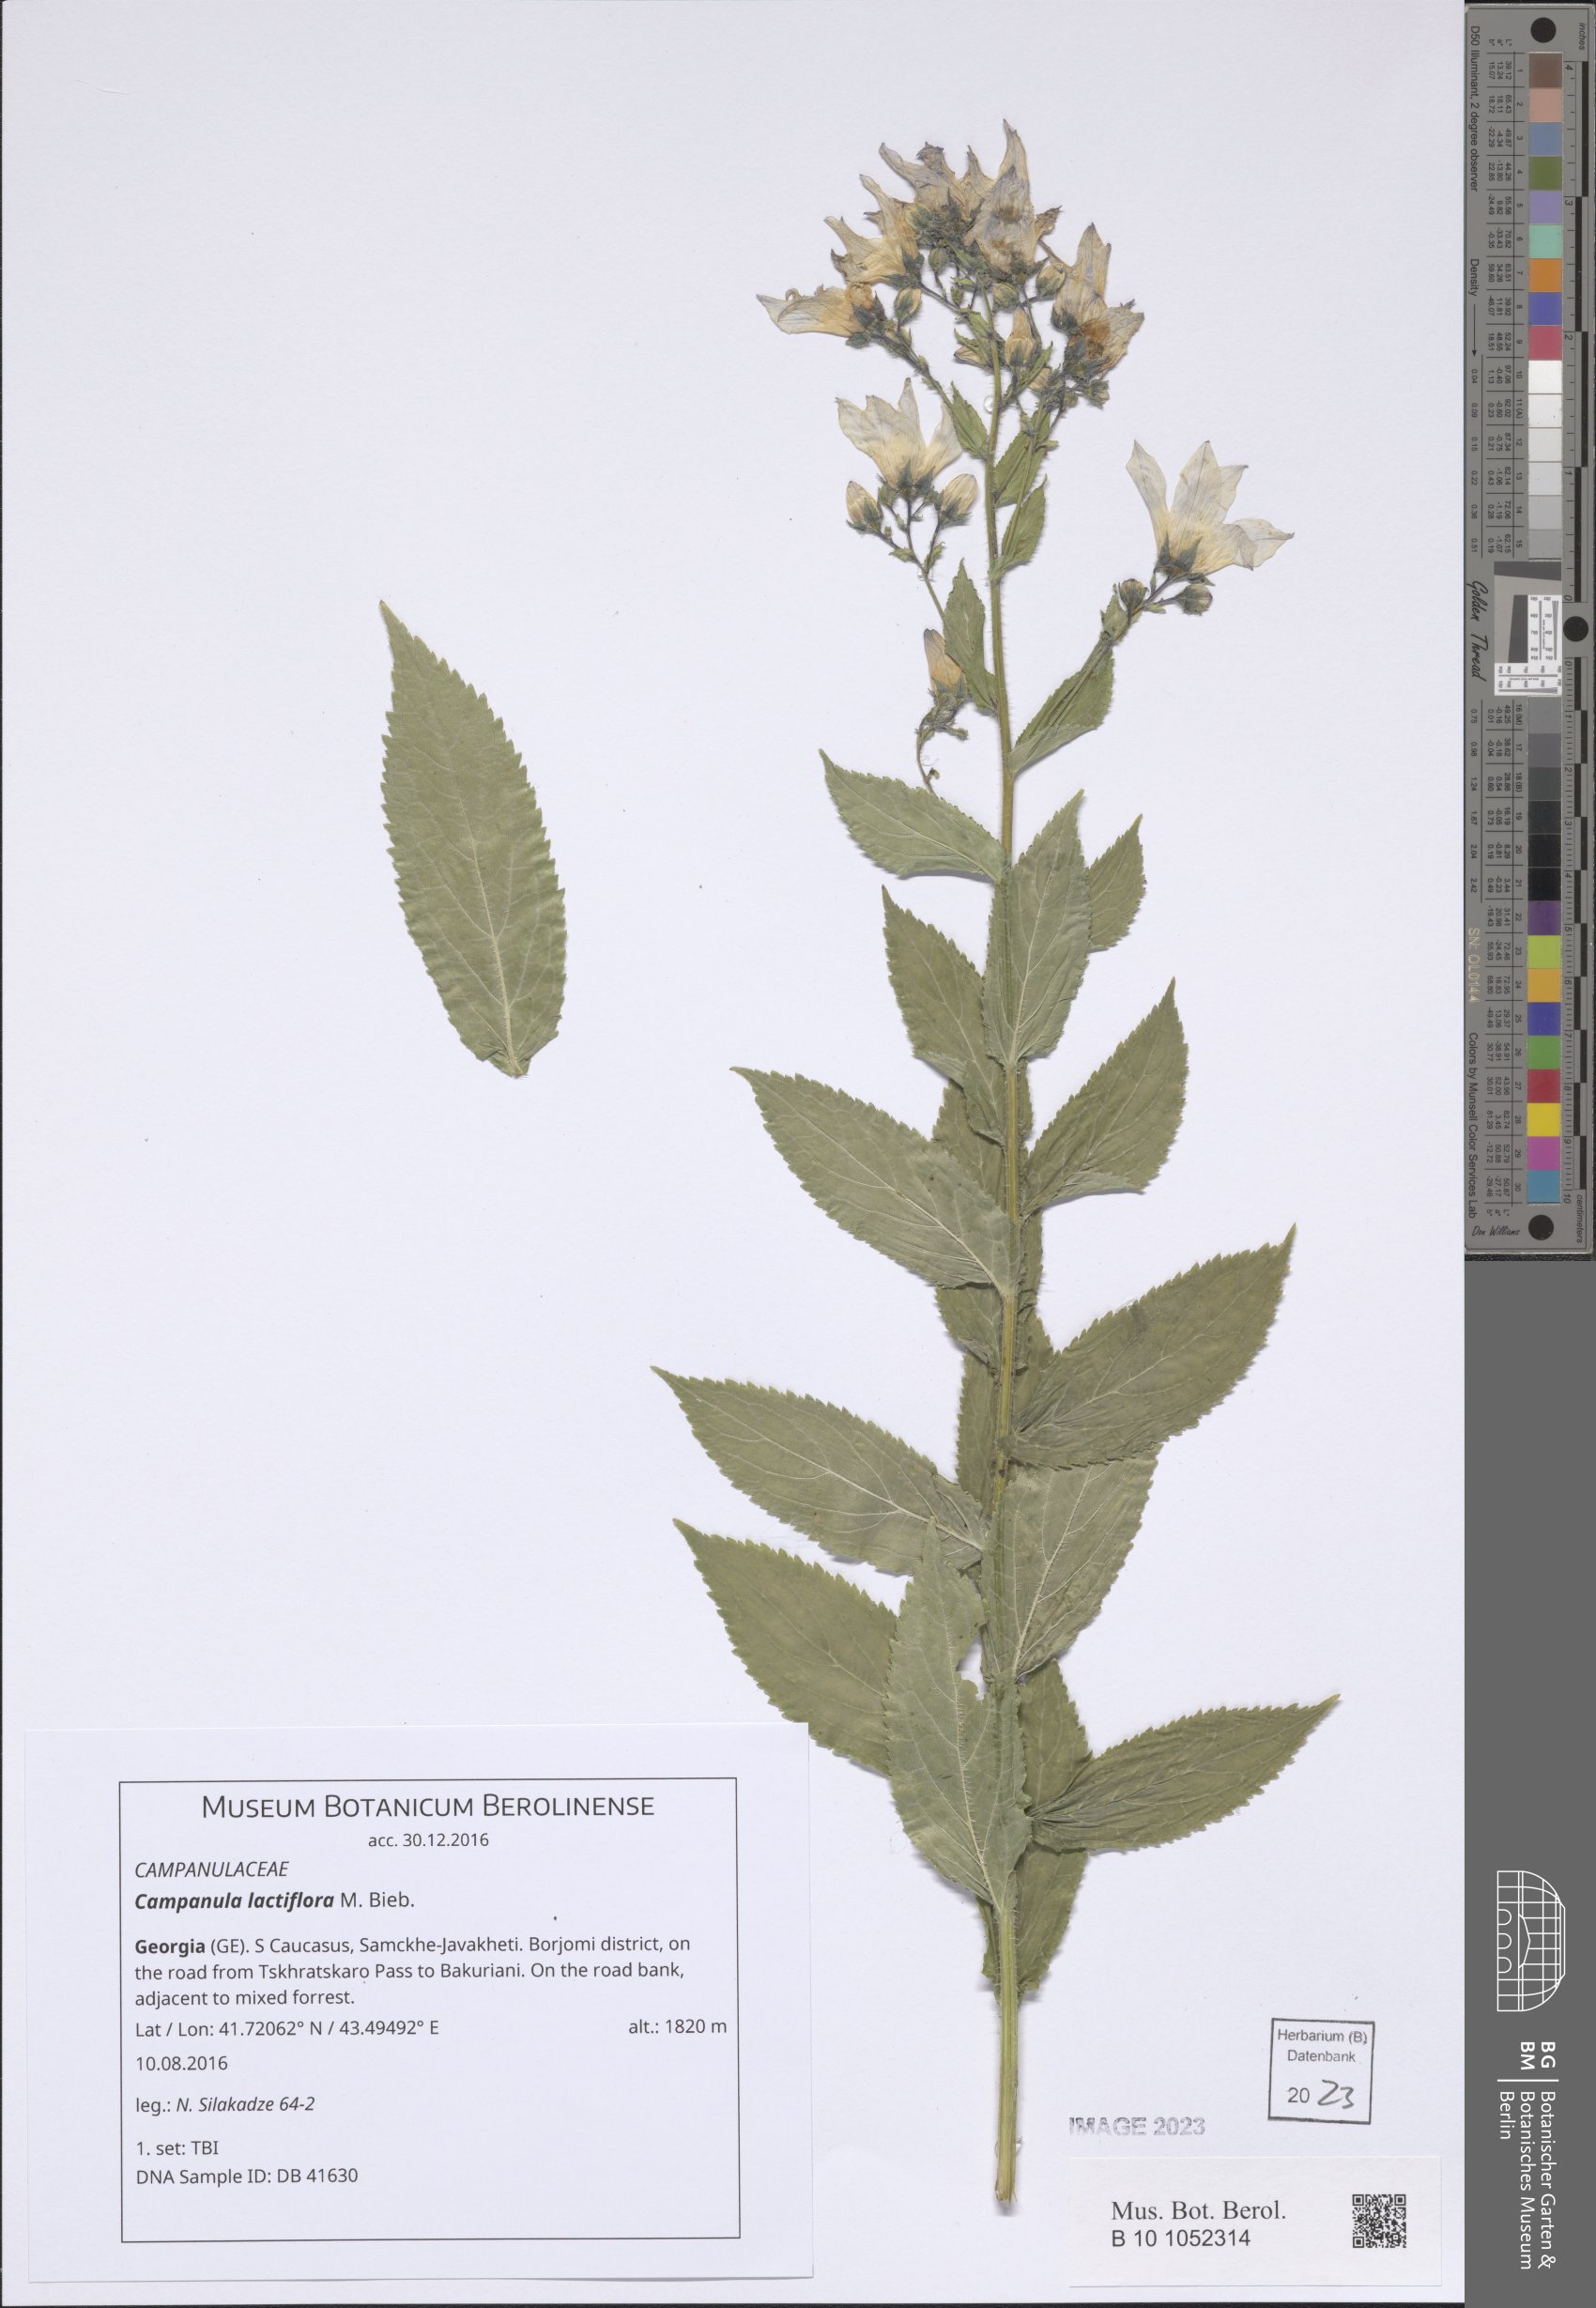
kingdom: Plantae
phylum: Tracheophyta
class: Magnoliopsida
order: Asterales
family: Campanulaceae
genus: Campanula
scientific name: Campanula lactiflora
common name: Milky bellflower
